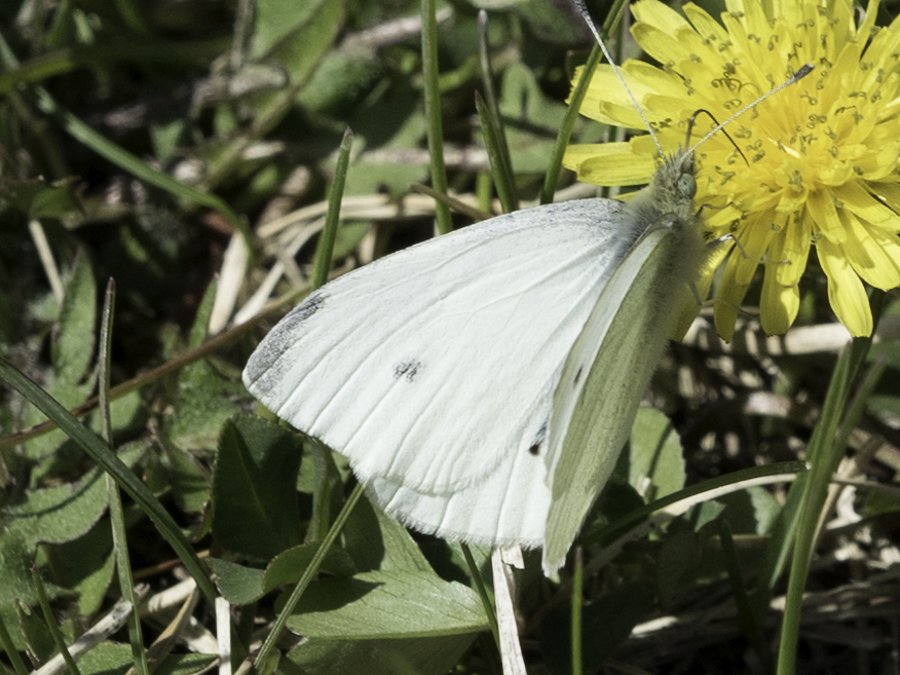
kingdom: Animalia
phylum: Arthropoda
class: Insecta
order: Lepidoptera
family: Pieridae
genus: Pieris
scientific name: Pieris rapae
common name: Cabbage White
